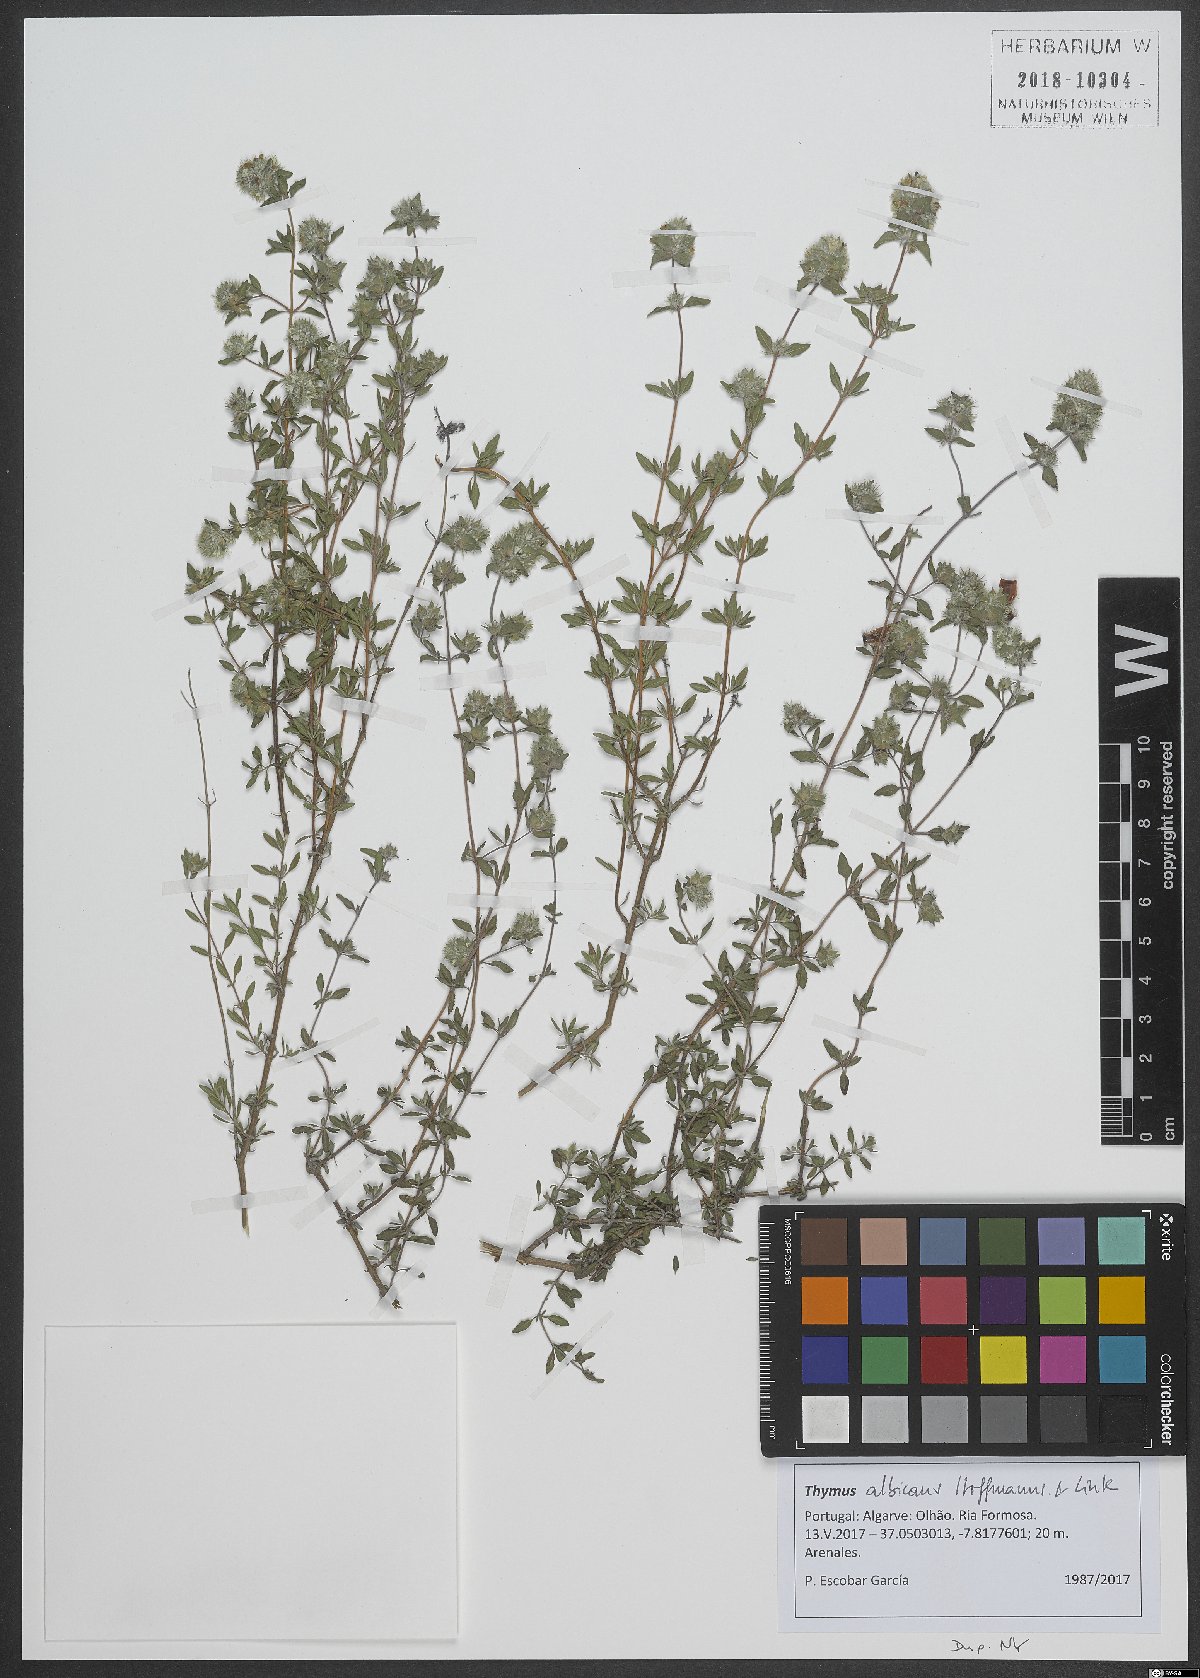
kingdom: Plantae
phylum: Tracheophyta
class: Magnoliopsida
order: Lamiales
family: Lamiaceae
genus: Thymus
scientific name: Thymus albicans
